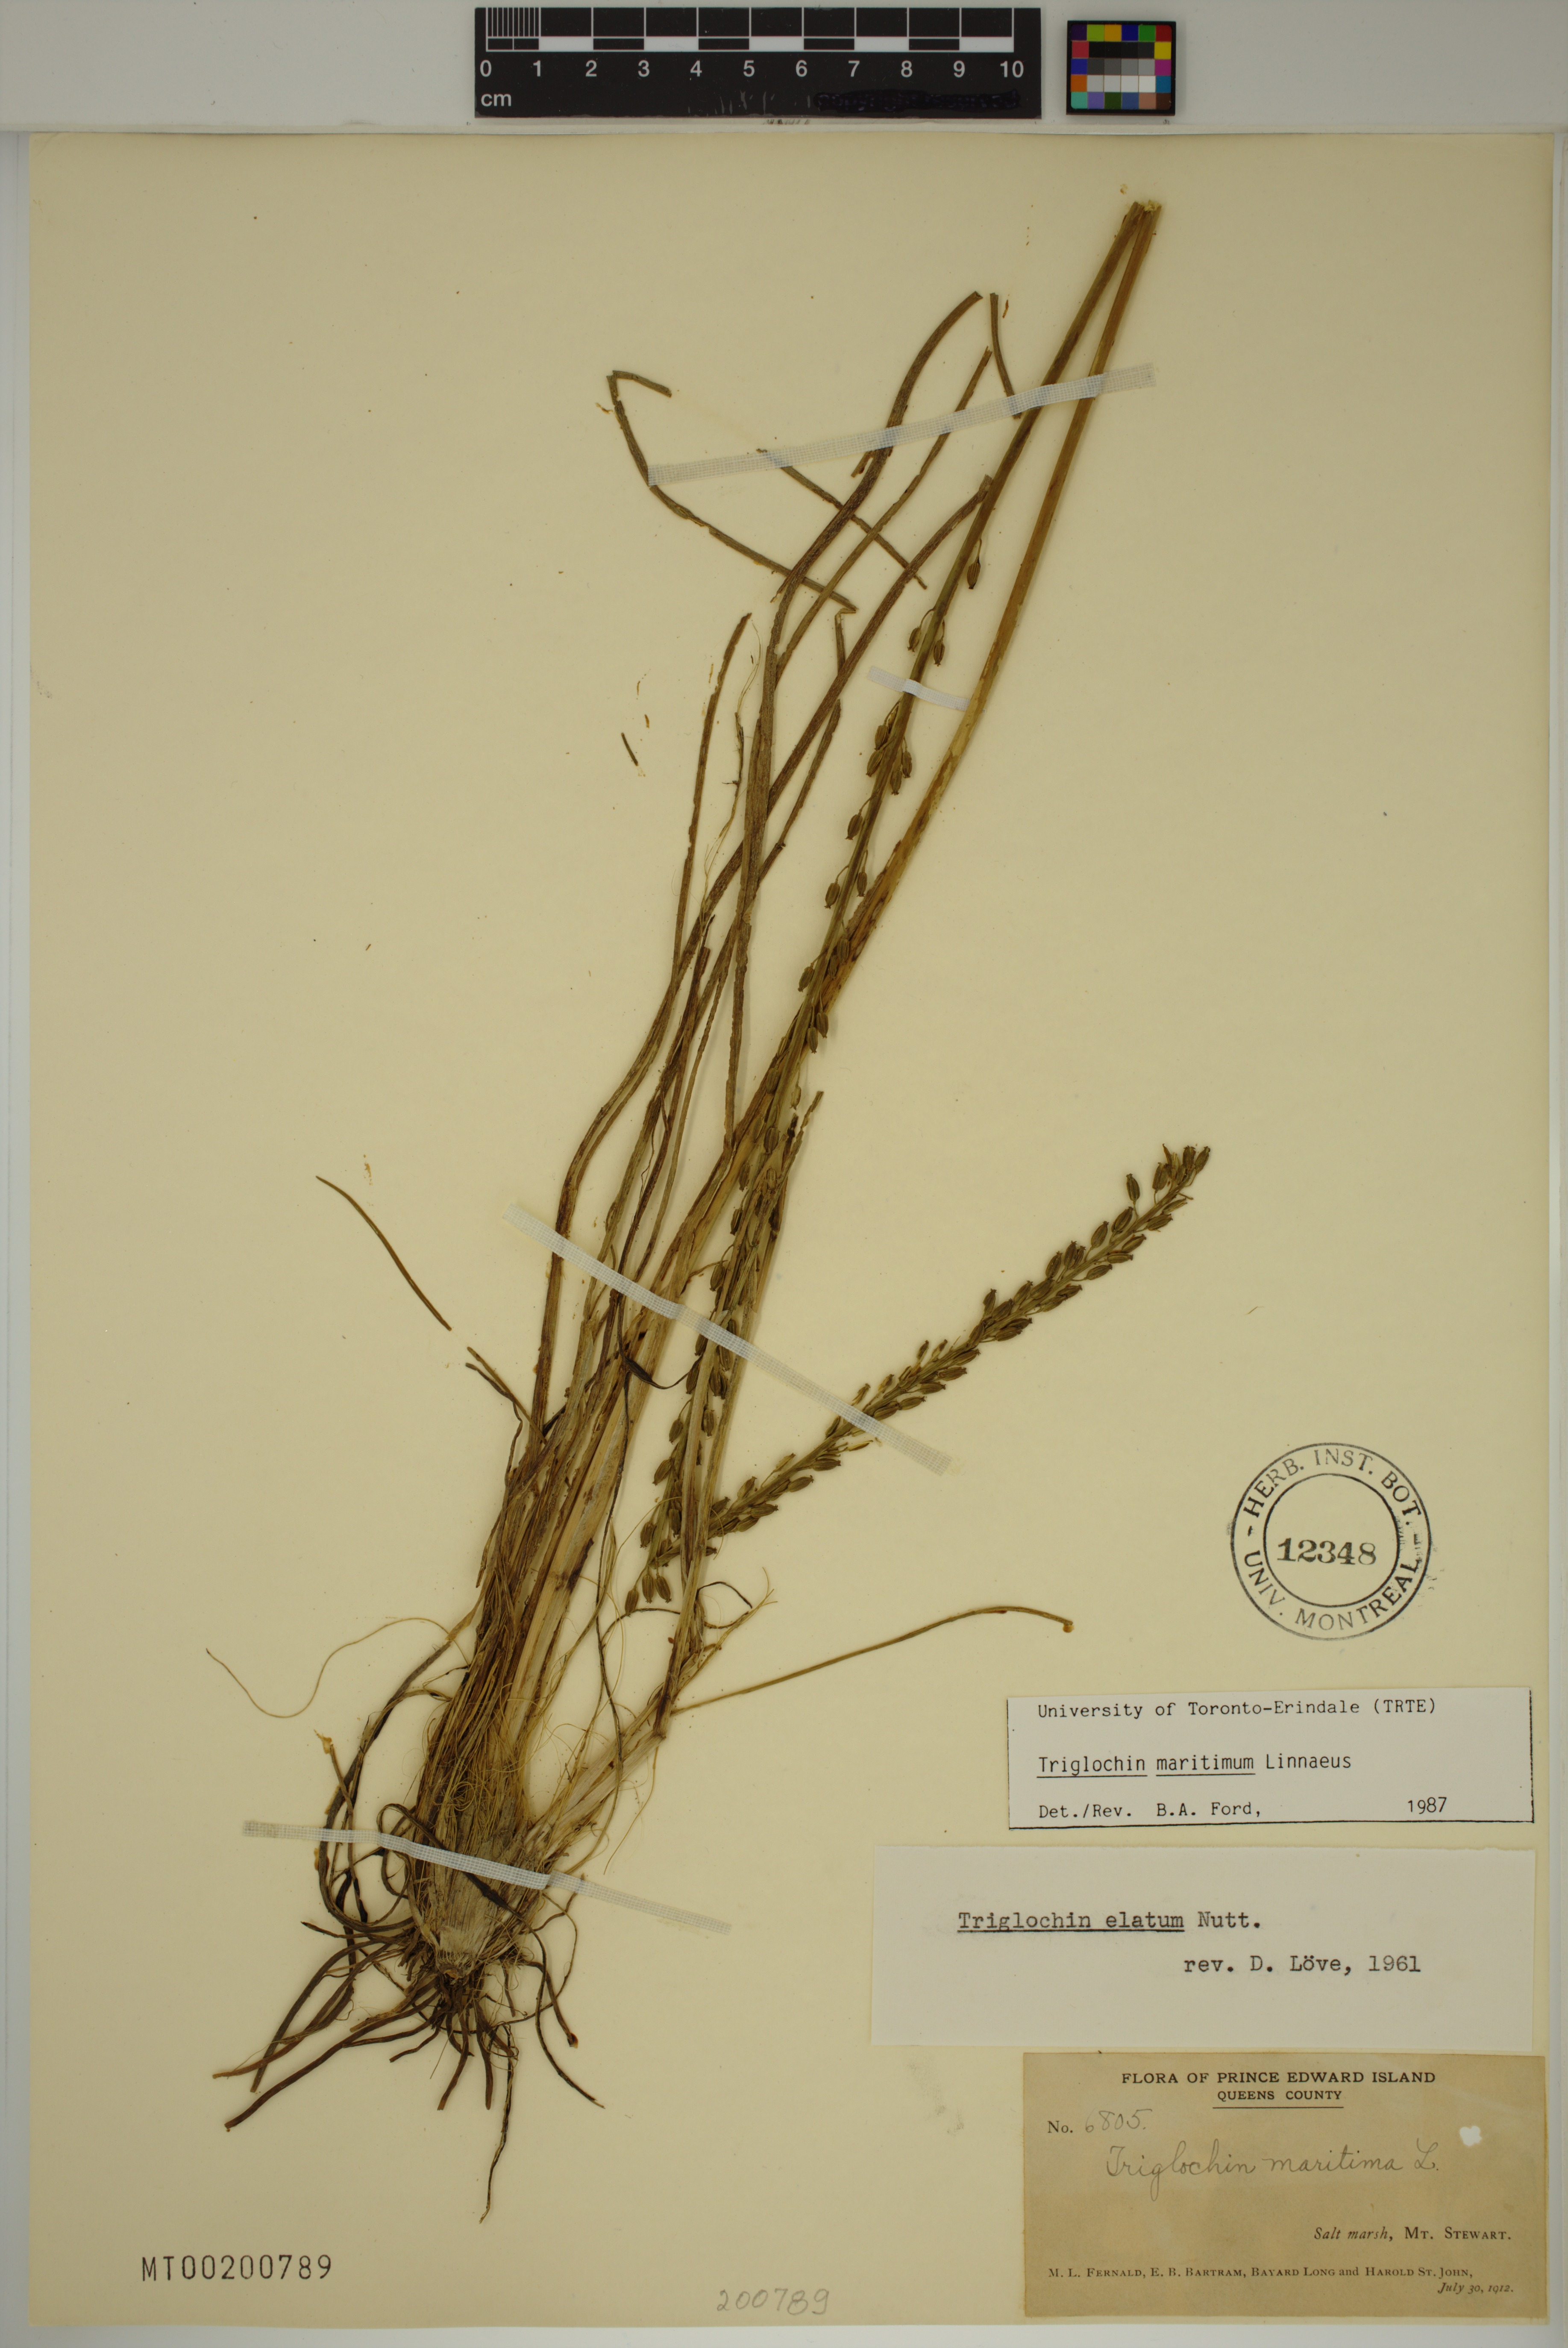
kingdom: Plantae
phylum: Tracheophyta
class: Liliopsida
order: Alismatales
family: Juncaginaceae
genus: Triglochin
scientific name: Triglochin maritima
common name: Sea arrowgrass
